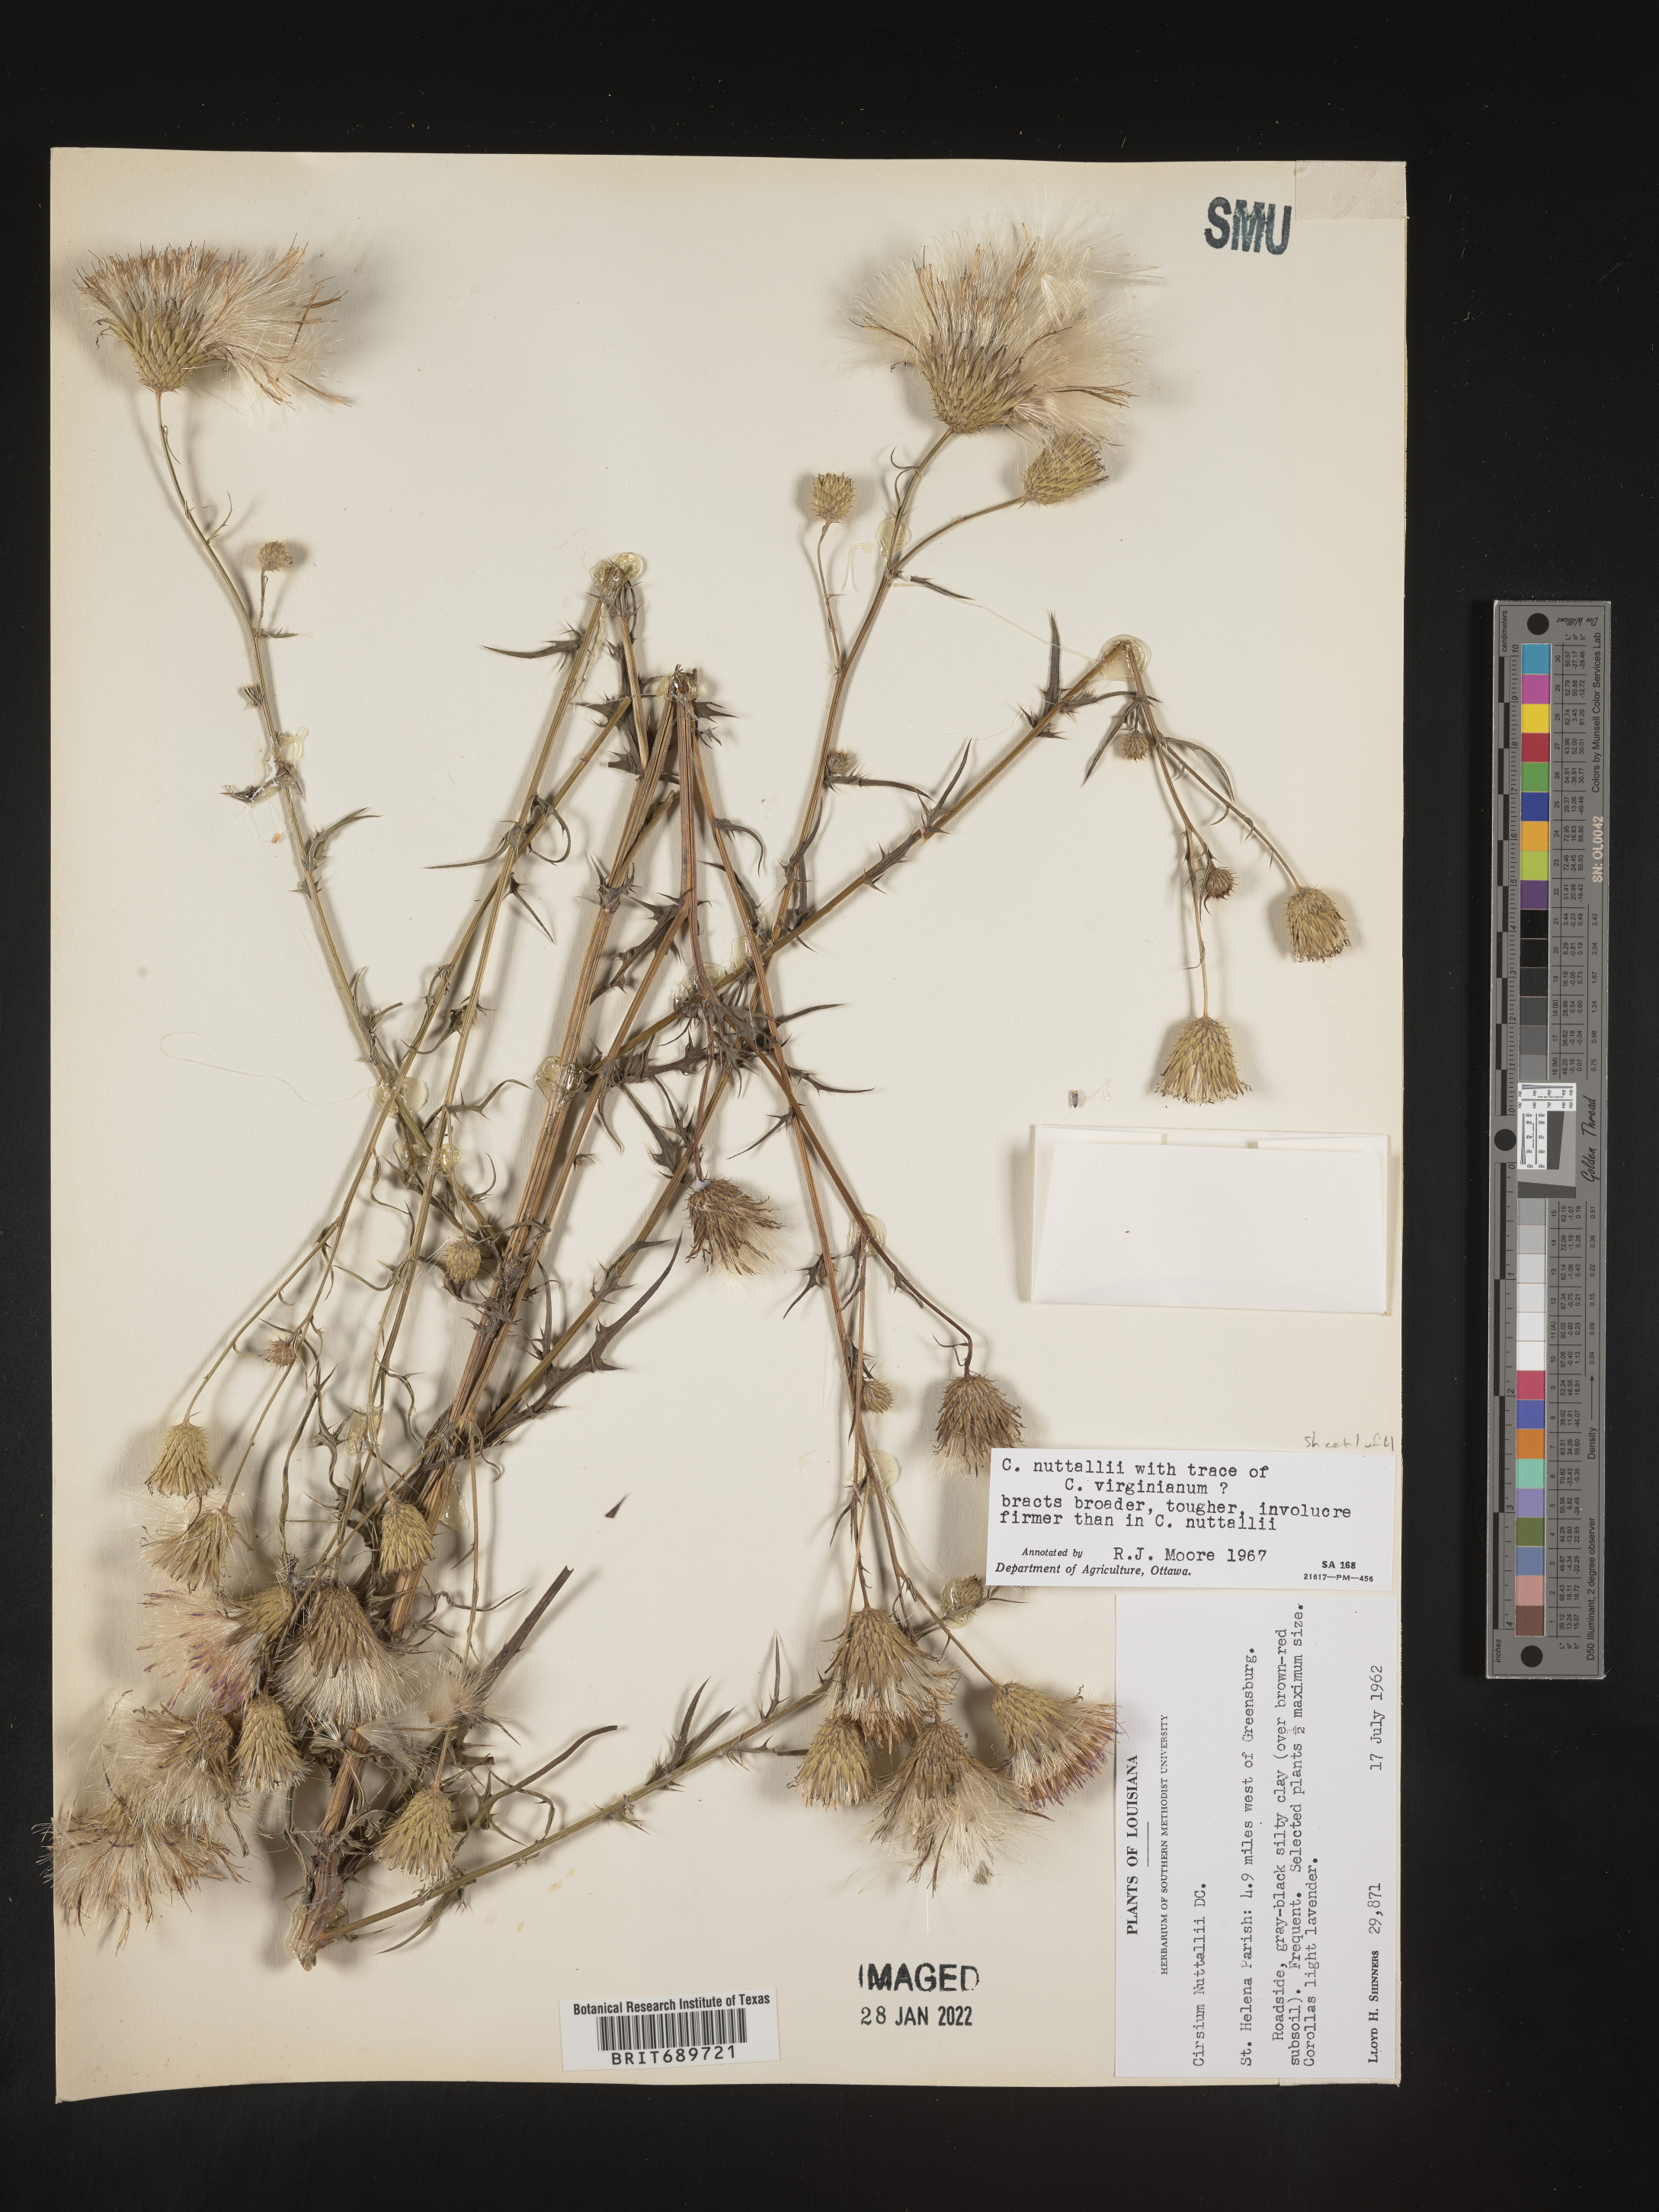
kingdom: Plantae
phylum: Tracheophyta
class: Magnoliopsida
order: Asterales
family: Asteraceae
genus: Cirsium
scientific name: Cirsium
